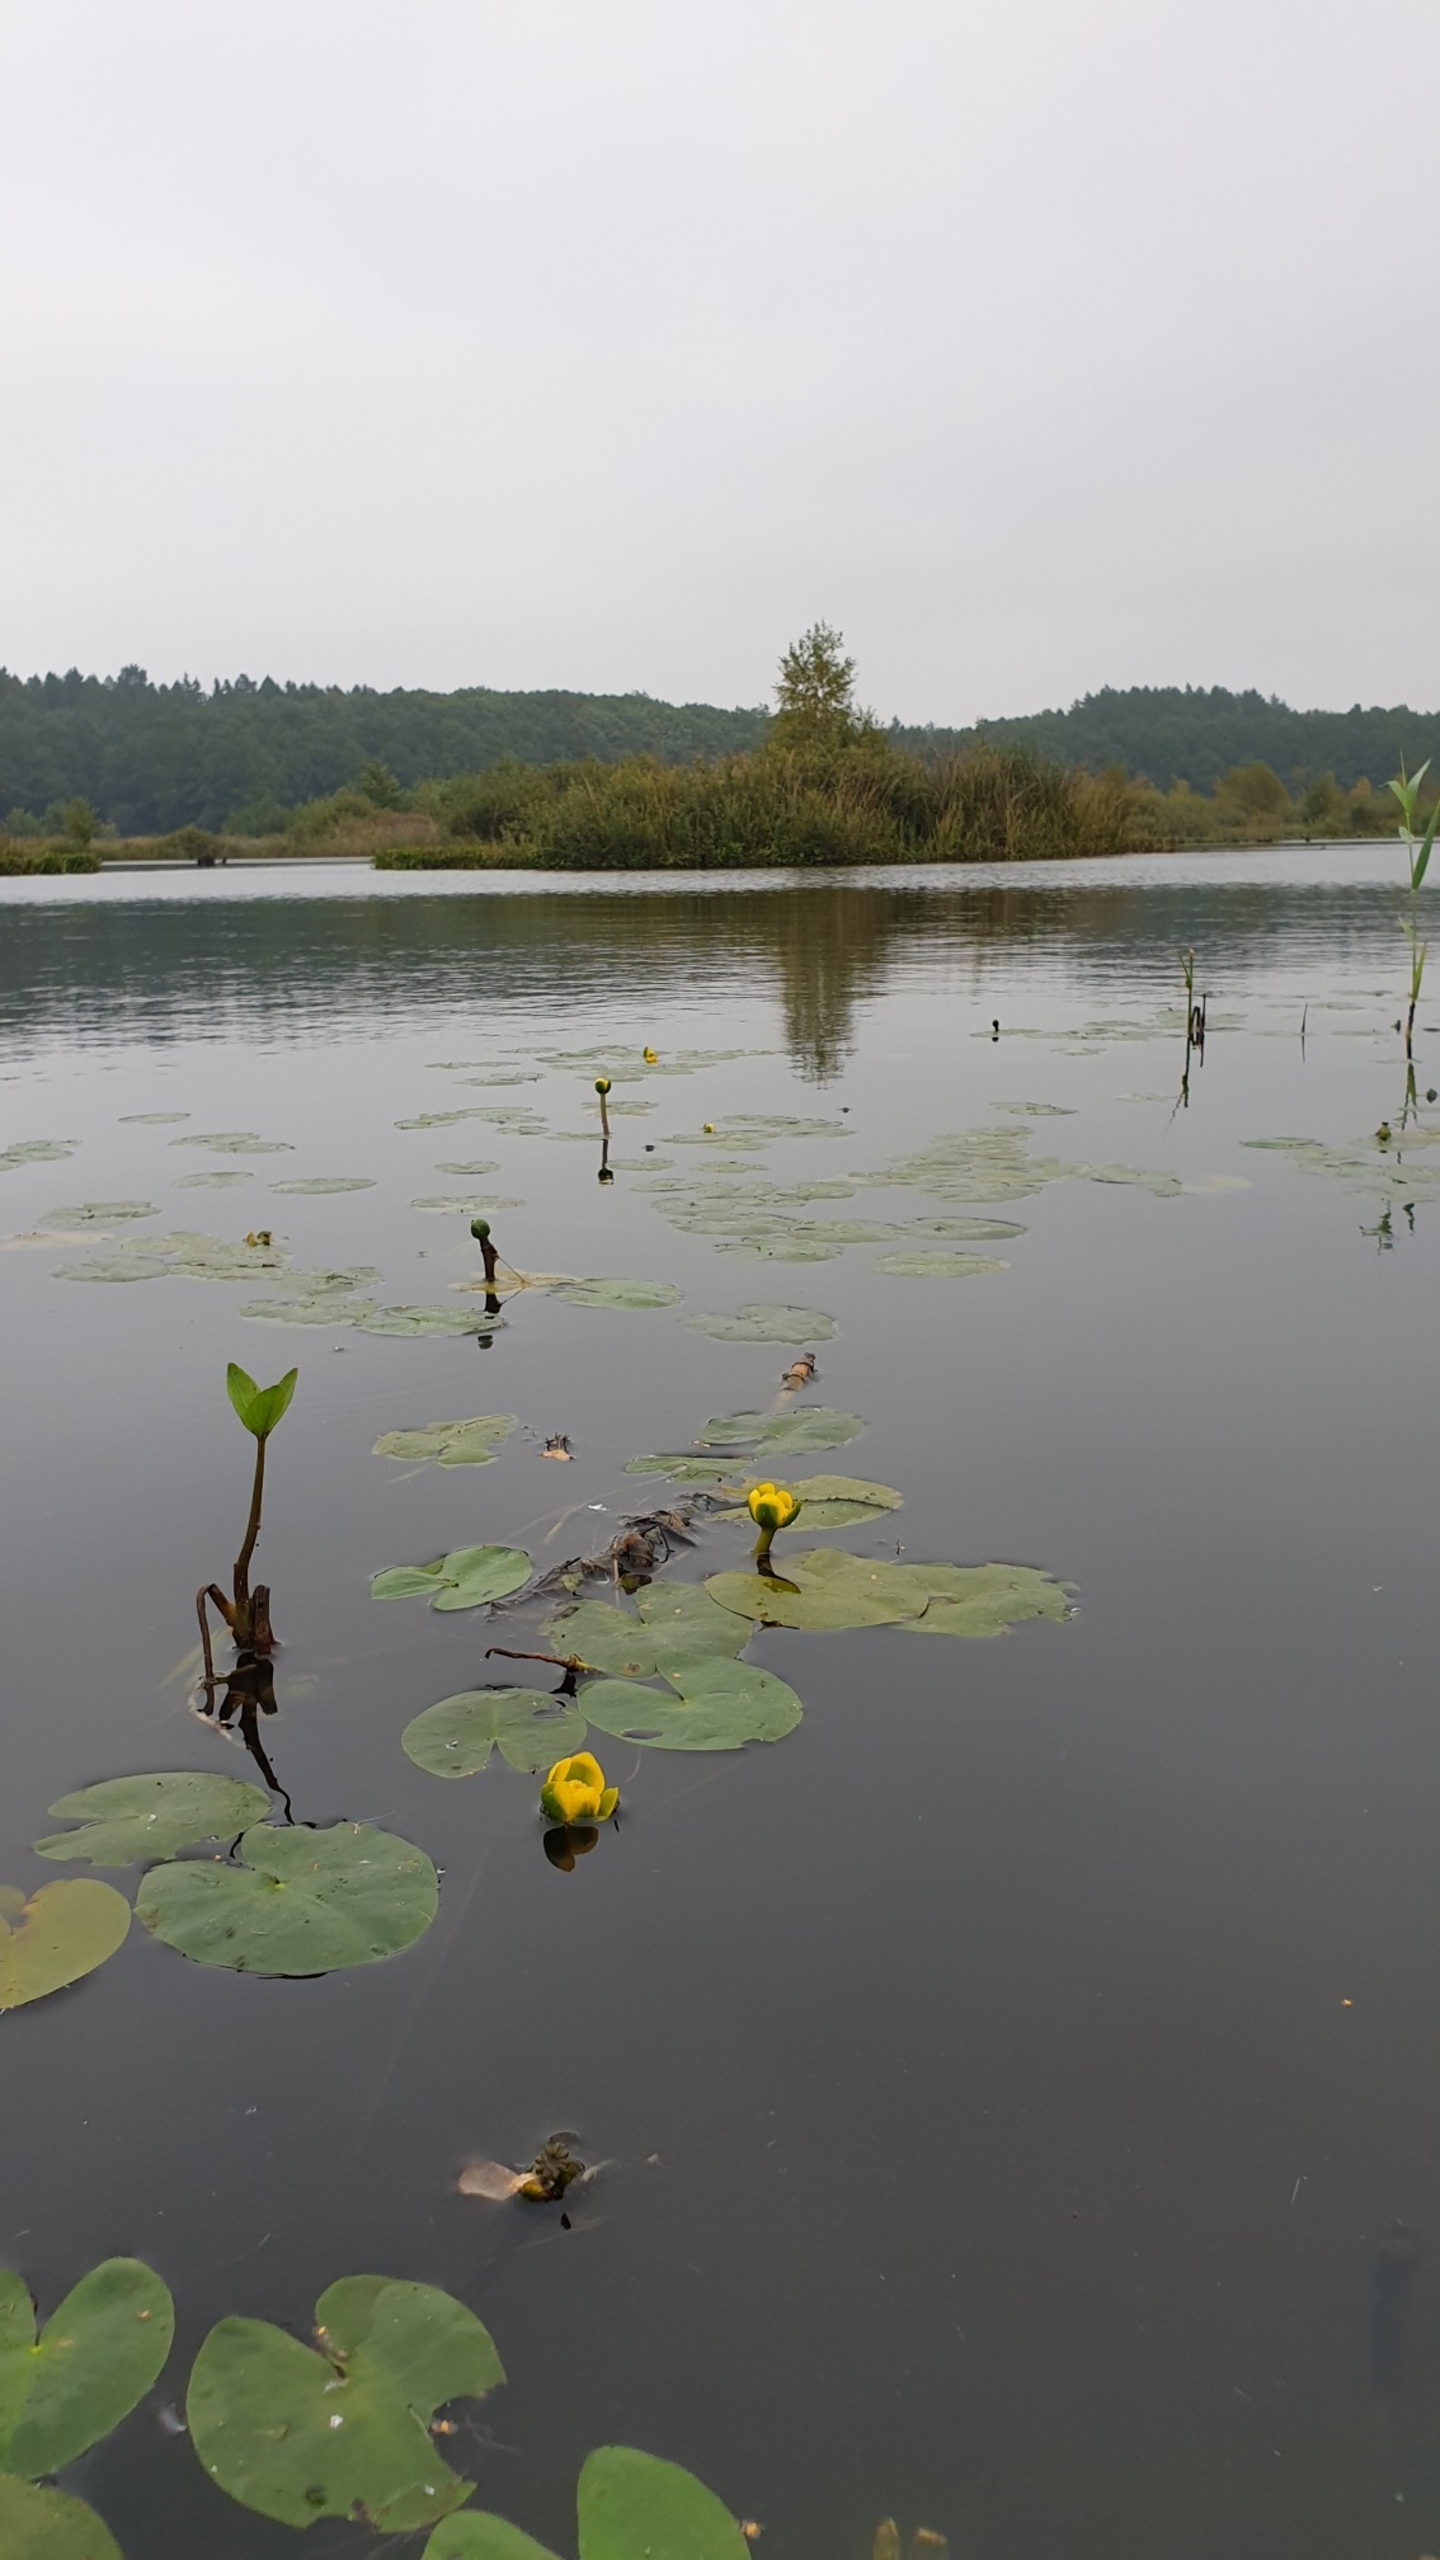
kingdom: Plantae
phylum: Tracheophyta
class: Magnoliopsida
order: Nymphaeales
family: Nymphaeaceae
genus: Nuphar
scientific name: Nuphar pumila
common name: Liden åkande
